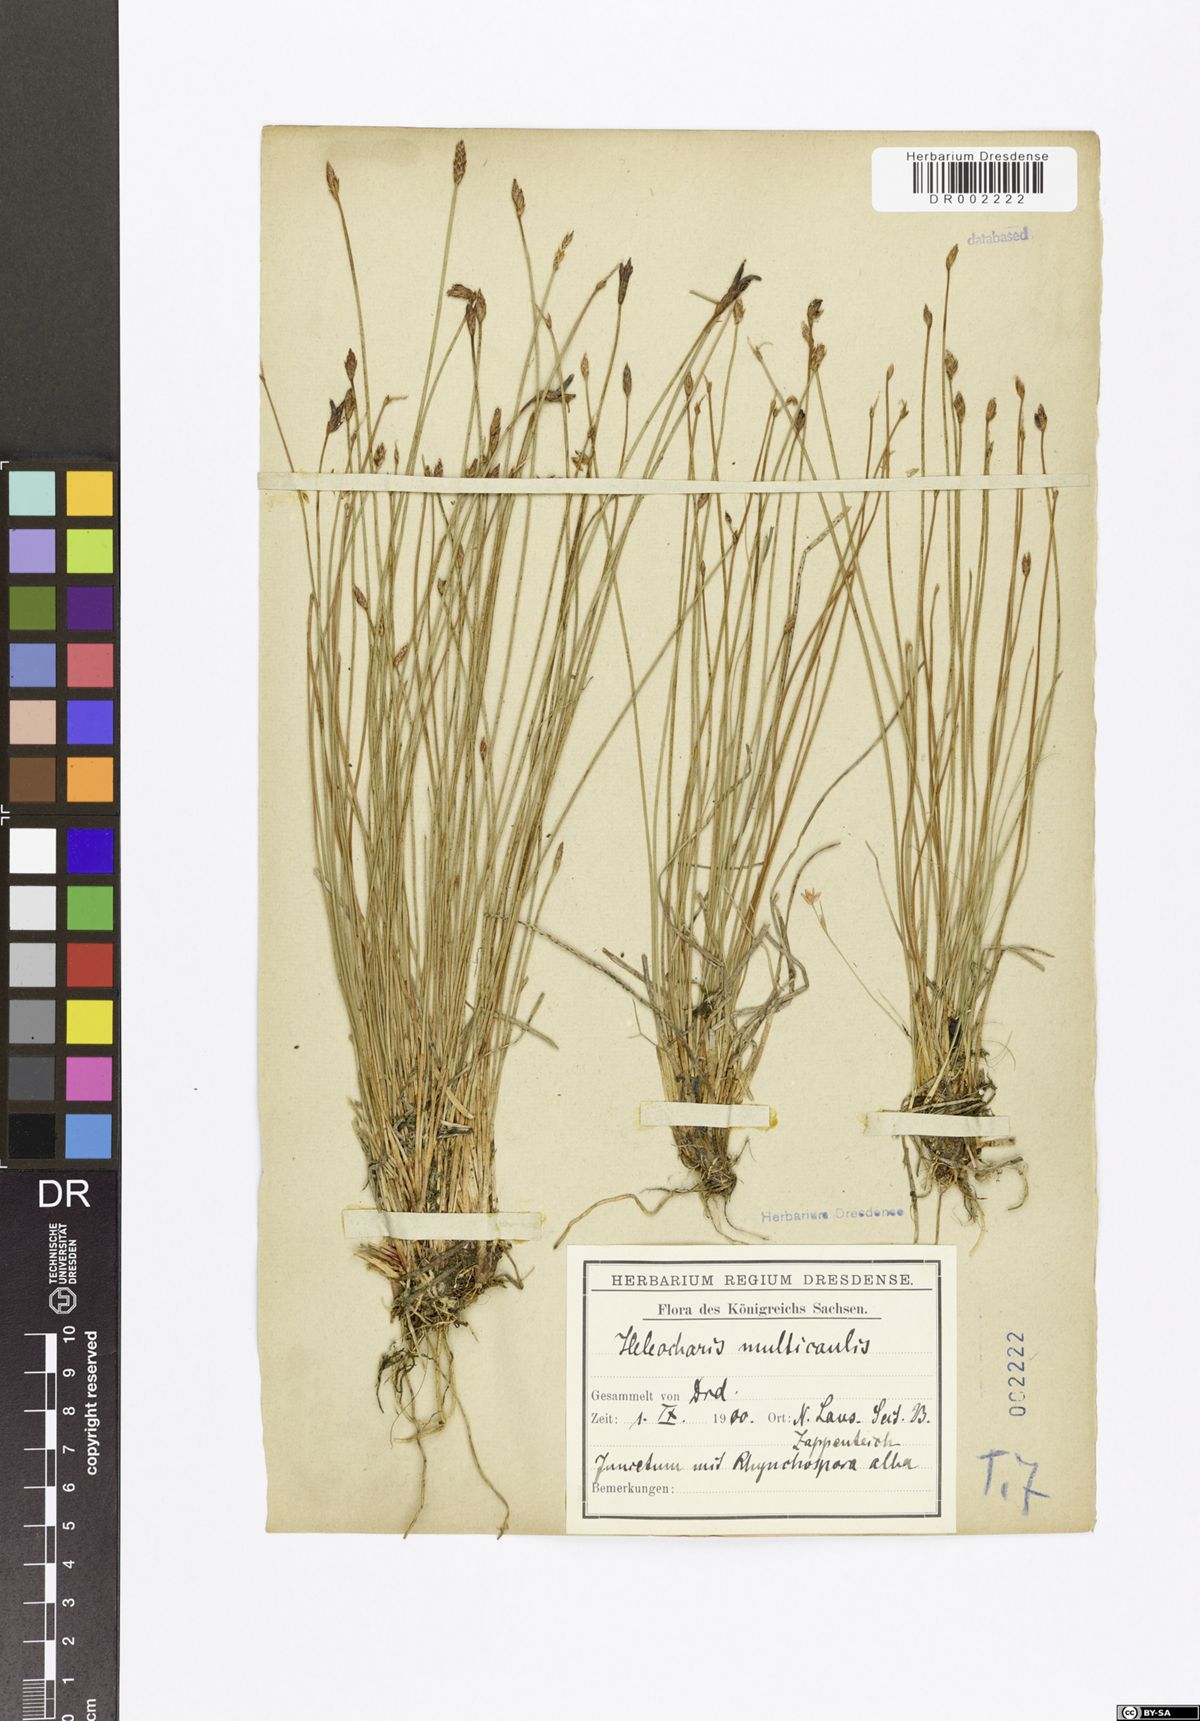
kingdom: Plantae
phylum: Tracheophyta
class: Liliopsida
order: Poales
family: Cyperaceae
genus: Eleocharis
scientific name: Eleocharis multicaulis
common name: Many-stalked spike-rush
